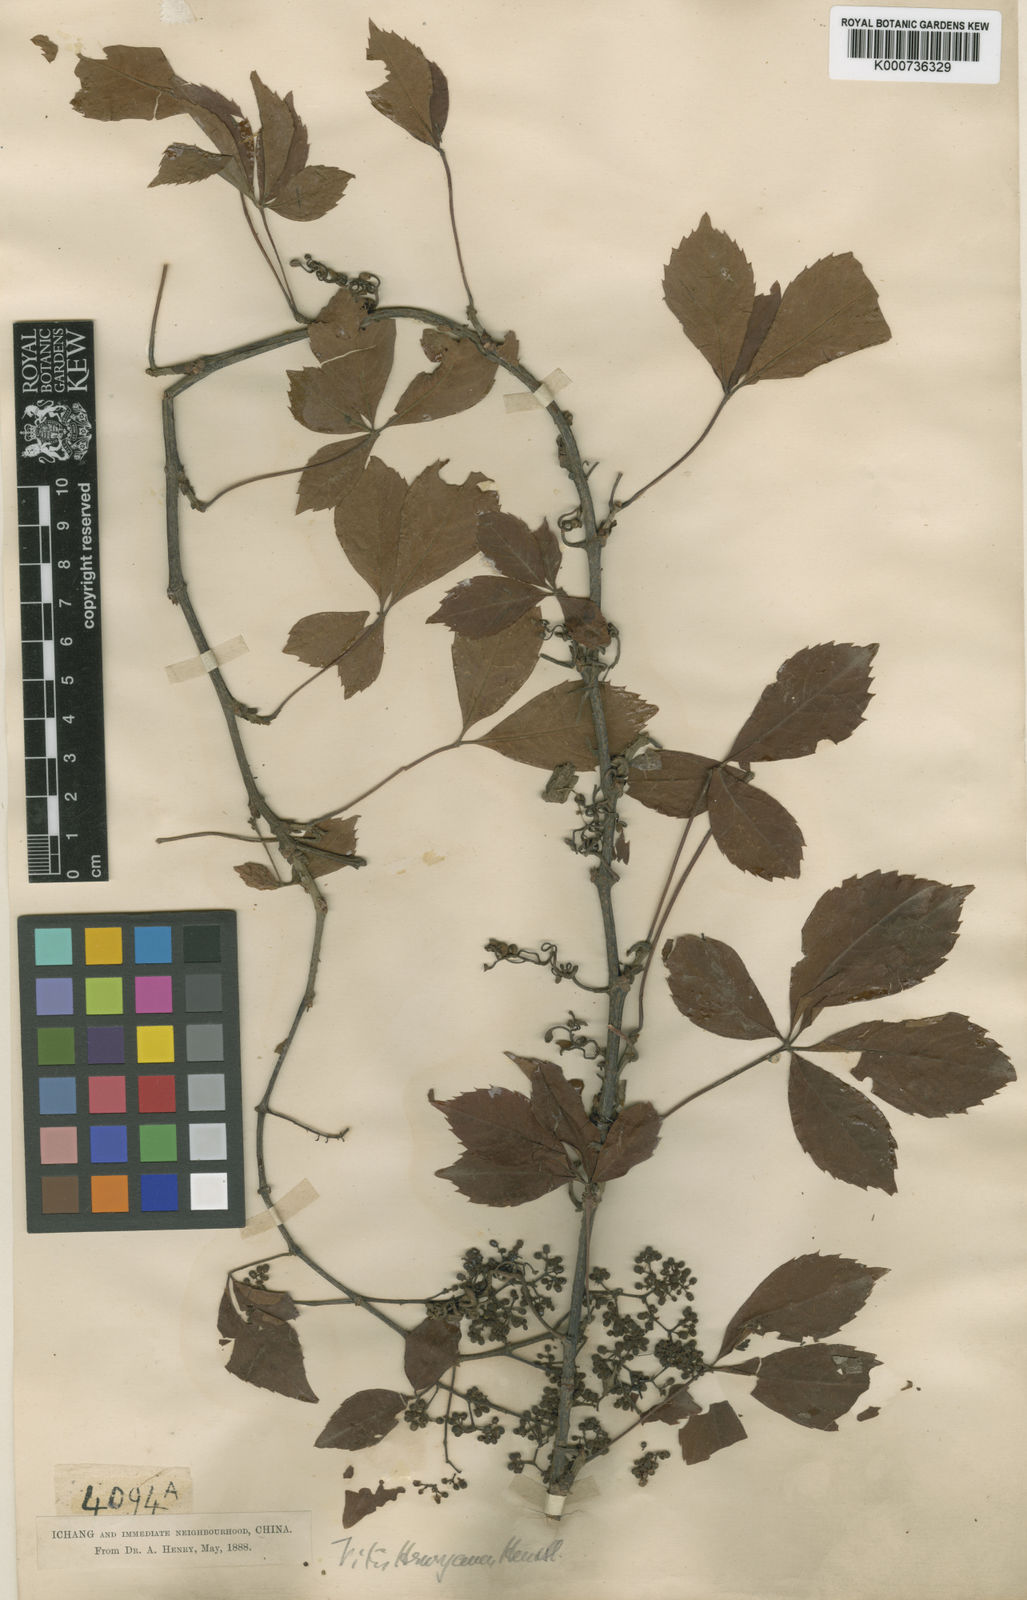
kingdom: Plantae
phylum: Tracheophyta
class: Magnoliopsida
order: Vitales
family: Vitaceae
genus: Parthenocissus
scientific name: Parthenocissus henryana
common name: Chinese virginia-creeper
